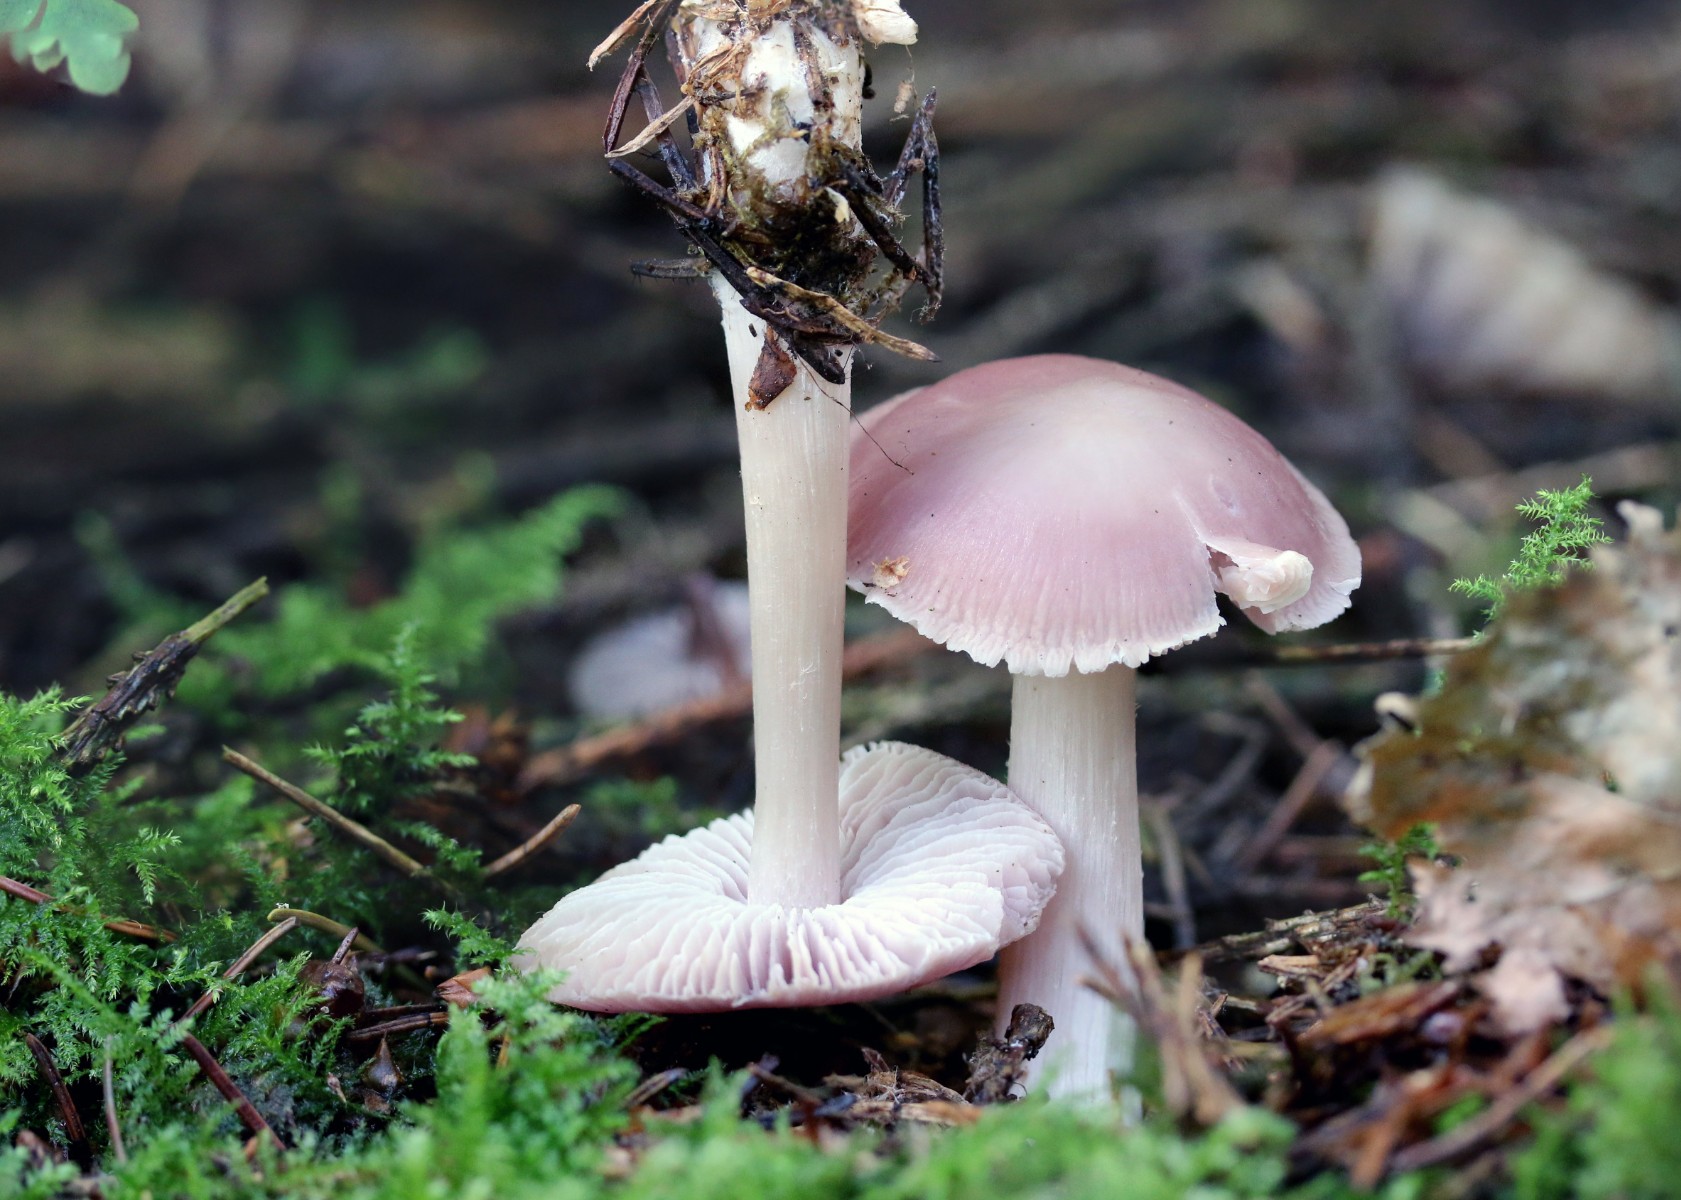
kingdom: Fungi
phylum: Basidiomycota
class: Agaricomycetes
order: Agaricales
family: Mycenaceae
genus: Mycena
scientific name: Mycena rosea
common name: rosa huesvamp
